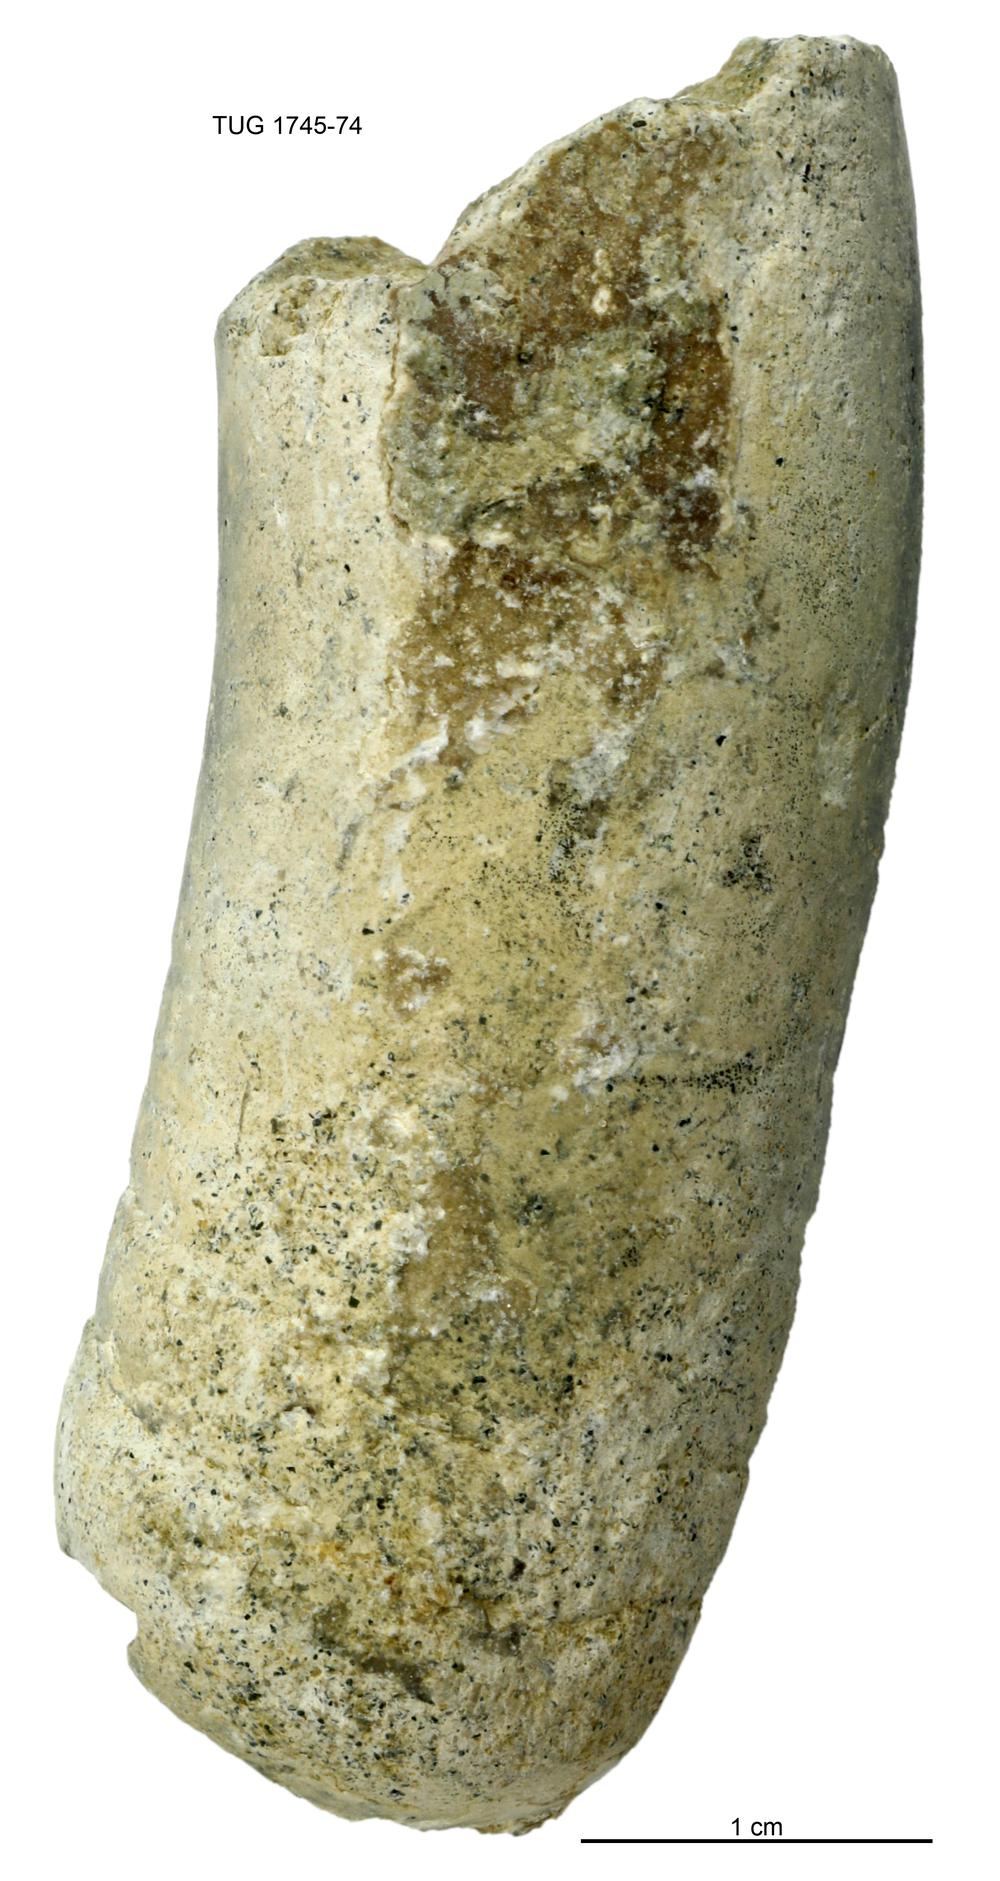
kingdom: Animalia
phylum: Mollusca
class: Cephalopoda
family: Tarphyceratidae
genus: Planctoceras
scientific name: Planctoceras
